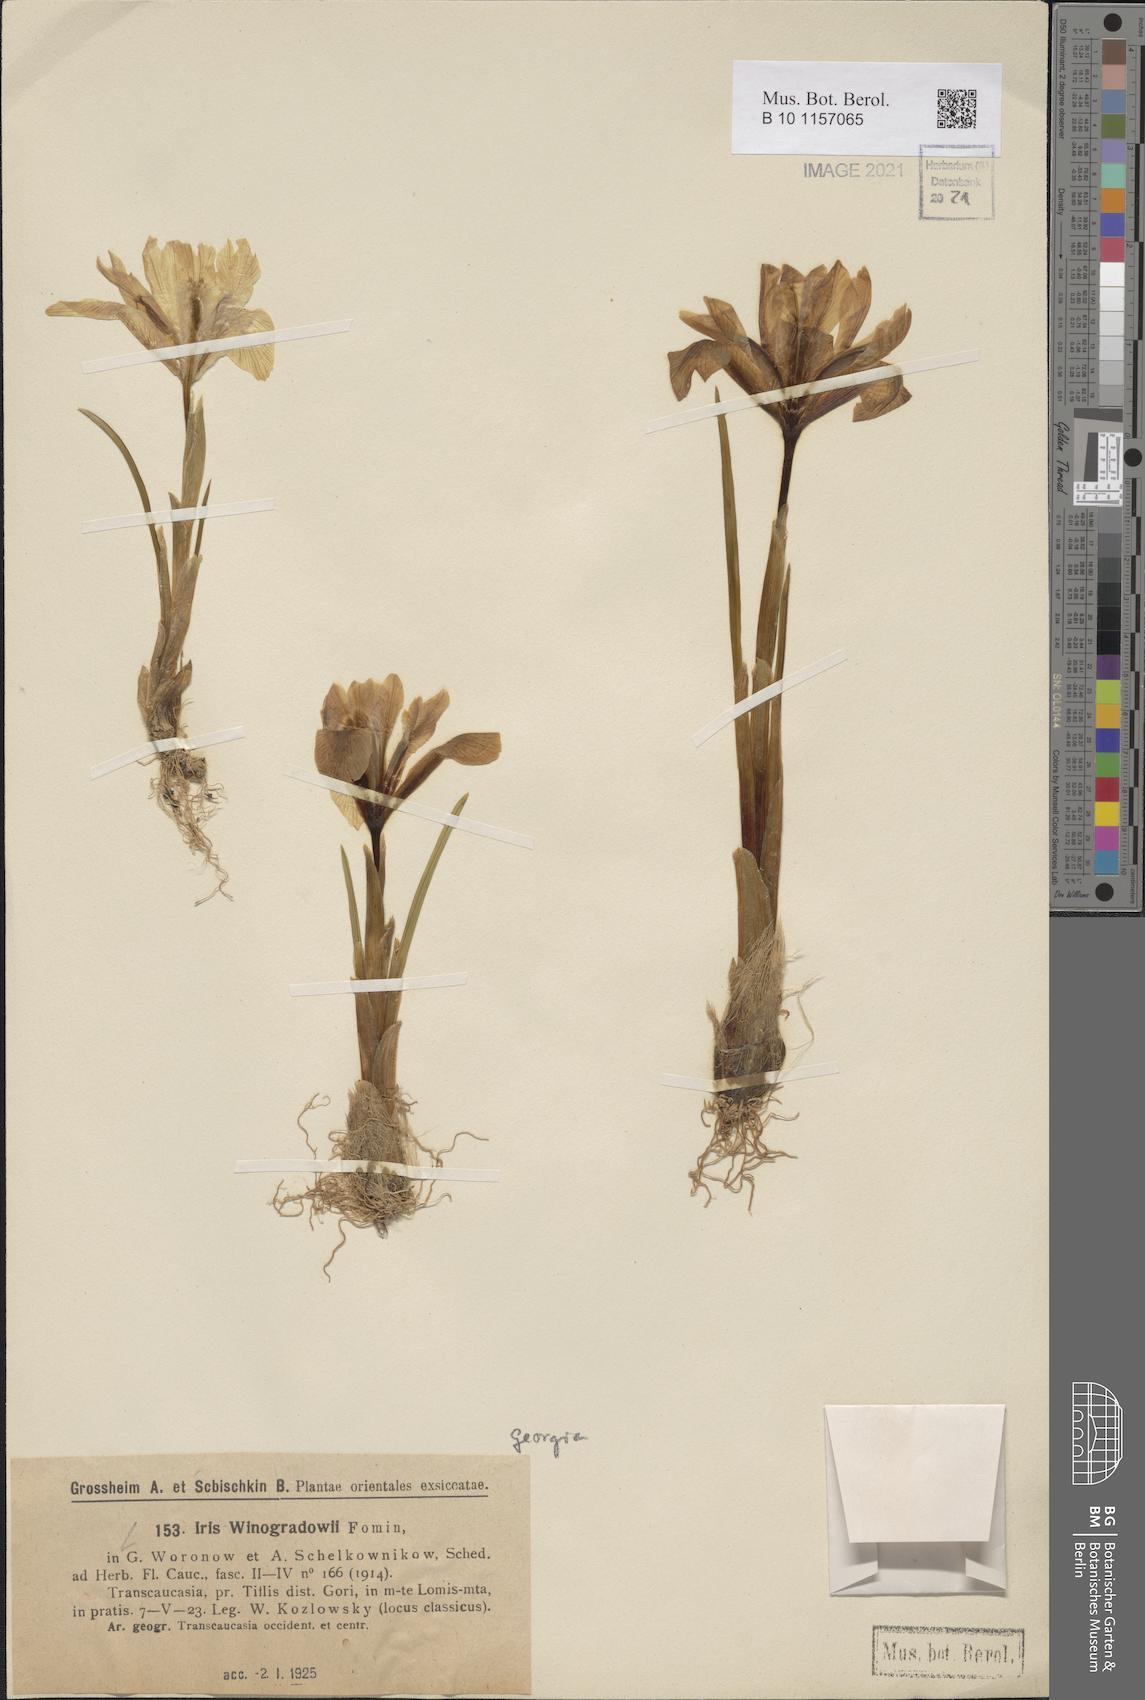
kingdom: Plantae
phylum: Tracheophyta
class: Liliopsida
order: Asparagales
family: Iridaceae
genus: Iris
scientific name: Iris winogradowii
